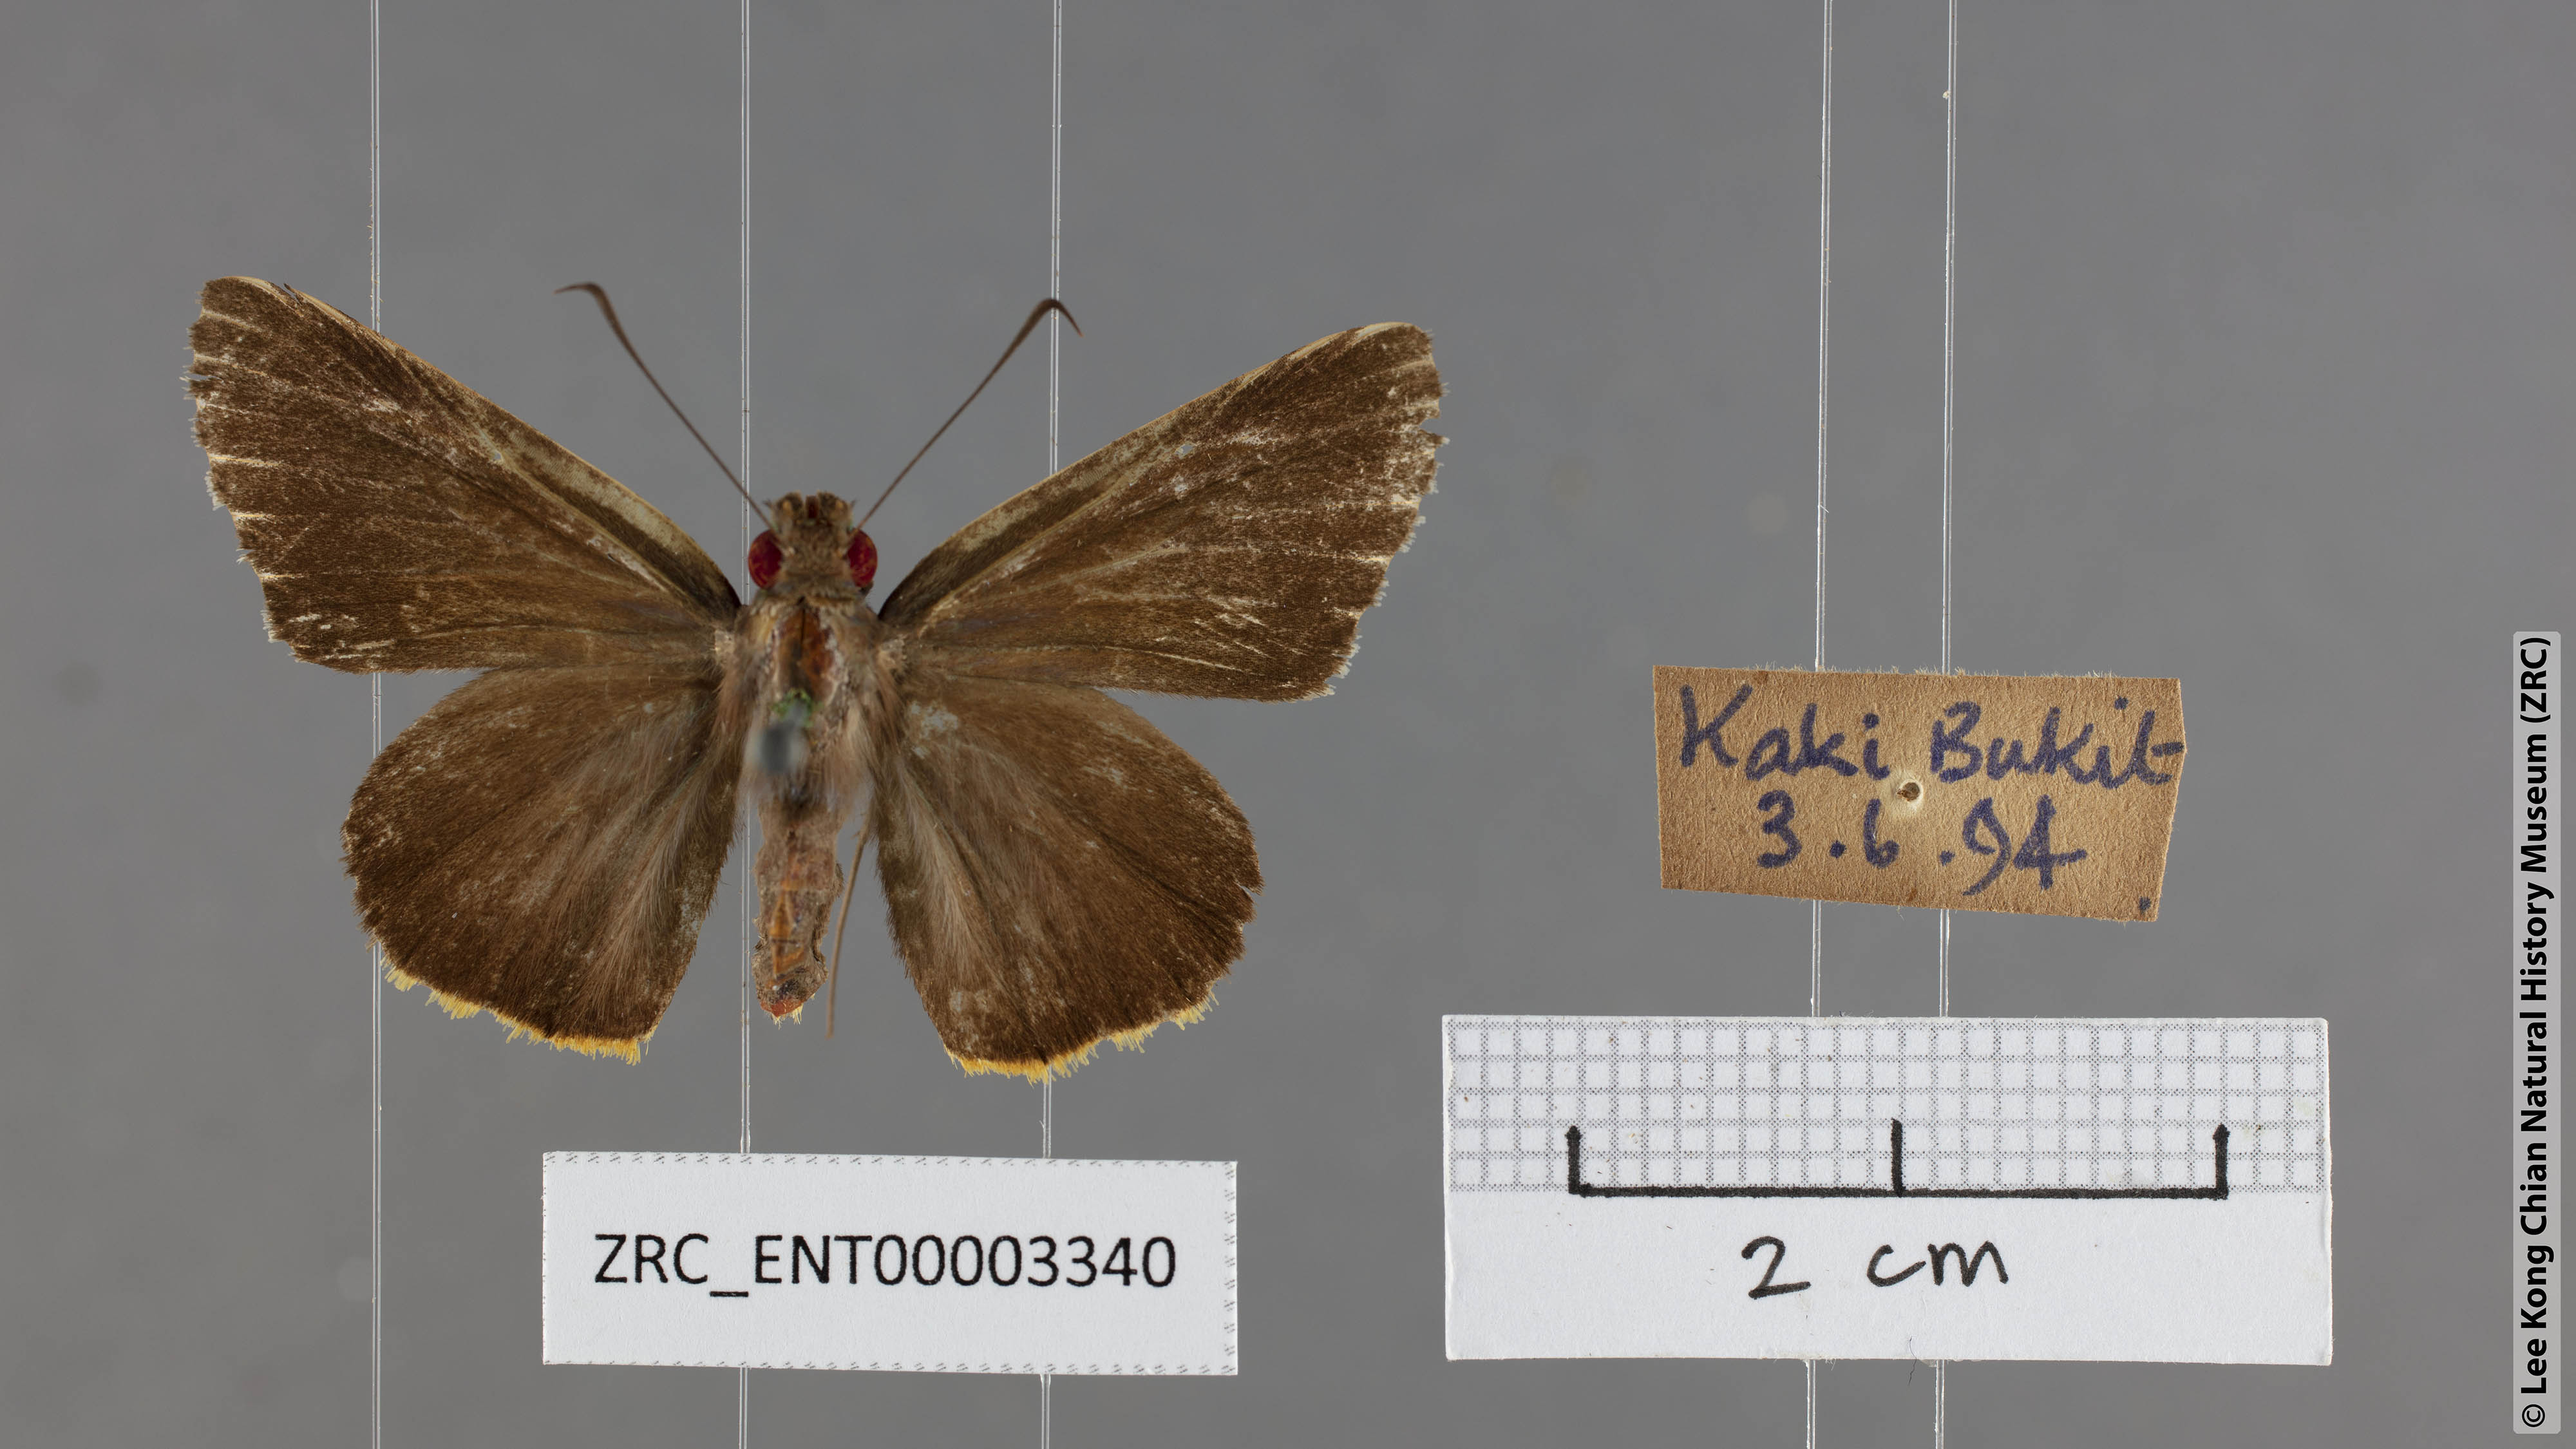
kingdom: Animalia
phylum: Arthropoda
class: Insecta
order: Lepidoptera
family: Hesperiidae
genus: Matapa
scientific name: Matapa aria
